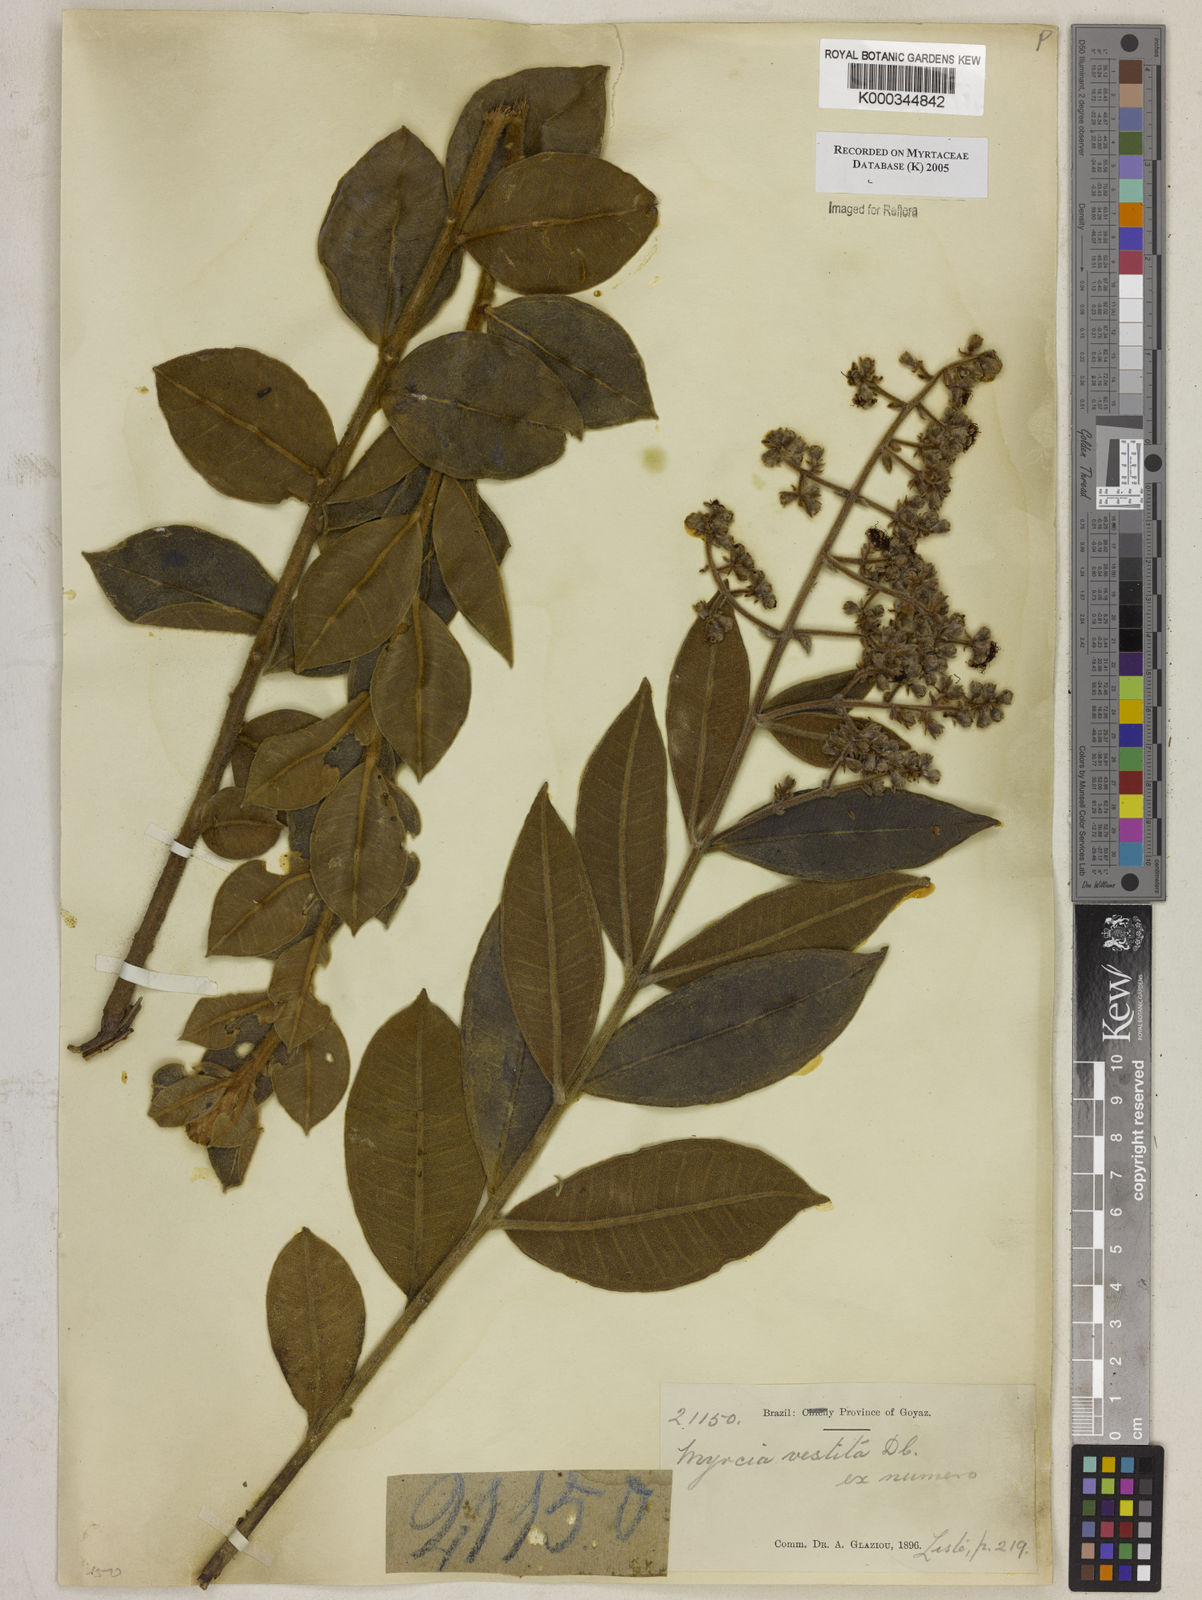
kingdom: Plantae
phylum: Tracheophyta
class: Magnoliopsida
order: Myrtales
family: Myrtaceae
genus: Myrcia
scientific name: Myrcia vestita
